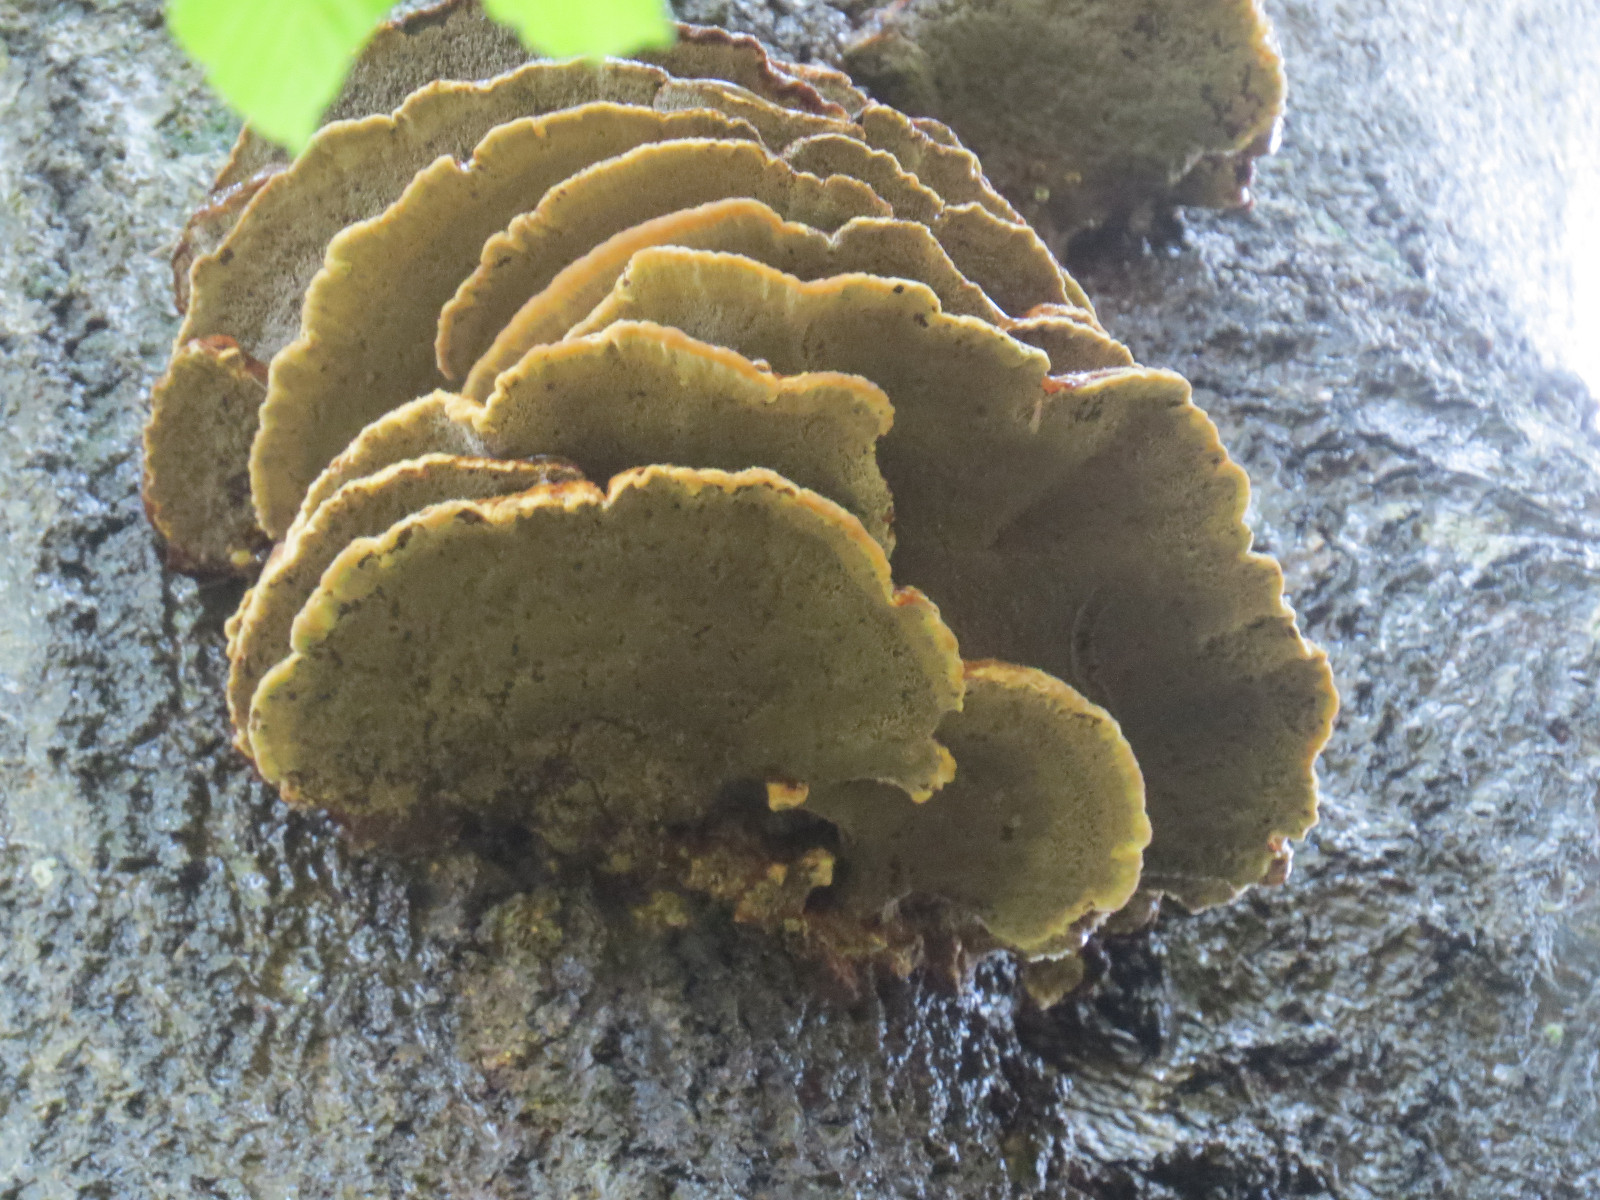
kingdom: Fungi
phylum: Basidiomycota
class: Agaricomycetes
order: Polyporales
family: Laetiporaceae
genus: Laetiporus
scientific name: Laetiporus sulphureus
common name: svovlporesvamp
